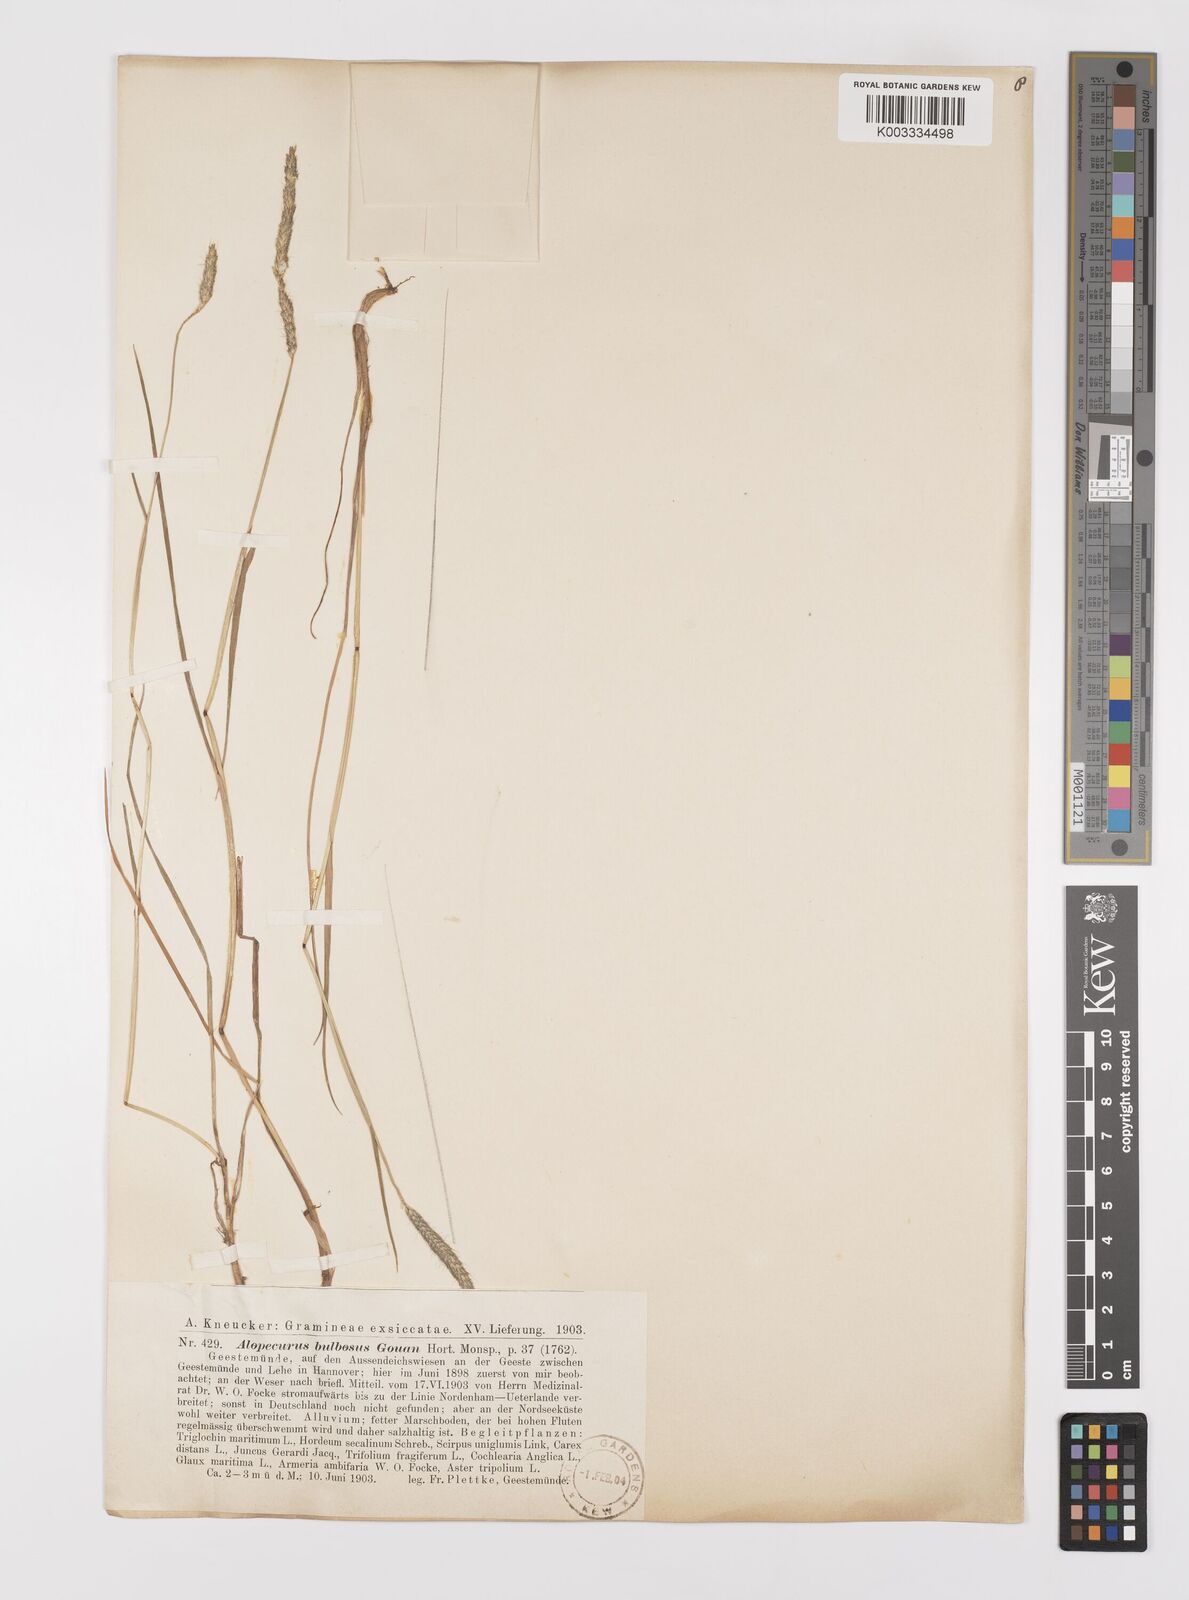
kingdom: Plantae
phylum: Tracheophyta
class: Liliopsida
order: Poales
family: Poaceae
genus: Alopecurus
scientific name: Alopecurus bulbosus
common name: Bulbous foxtail
